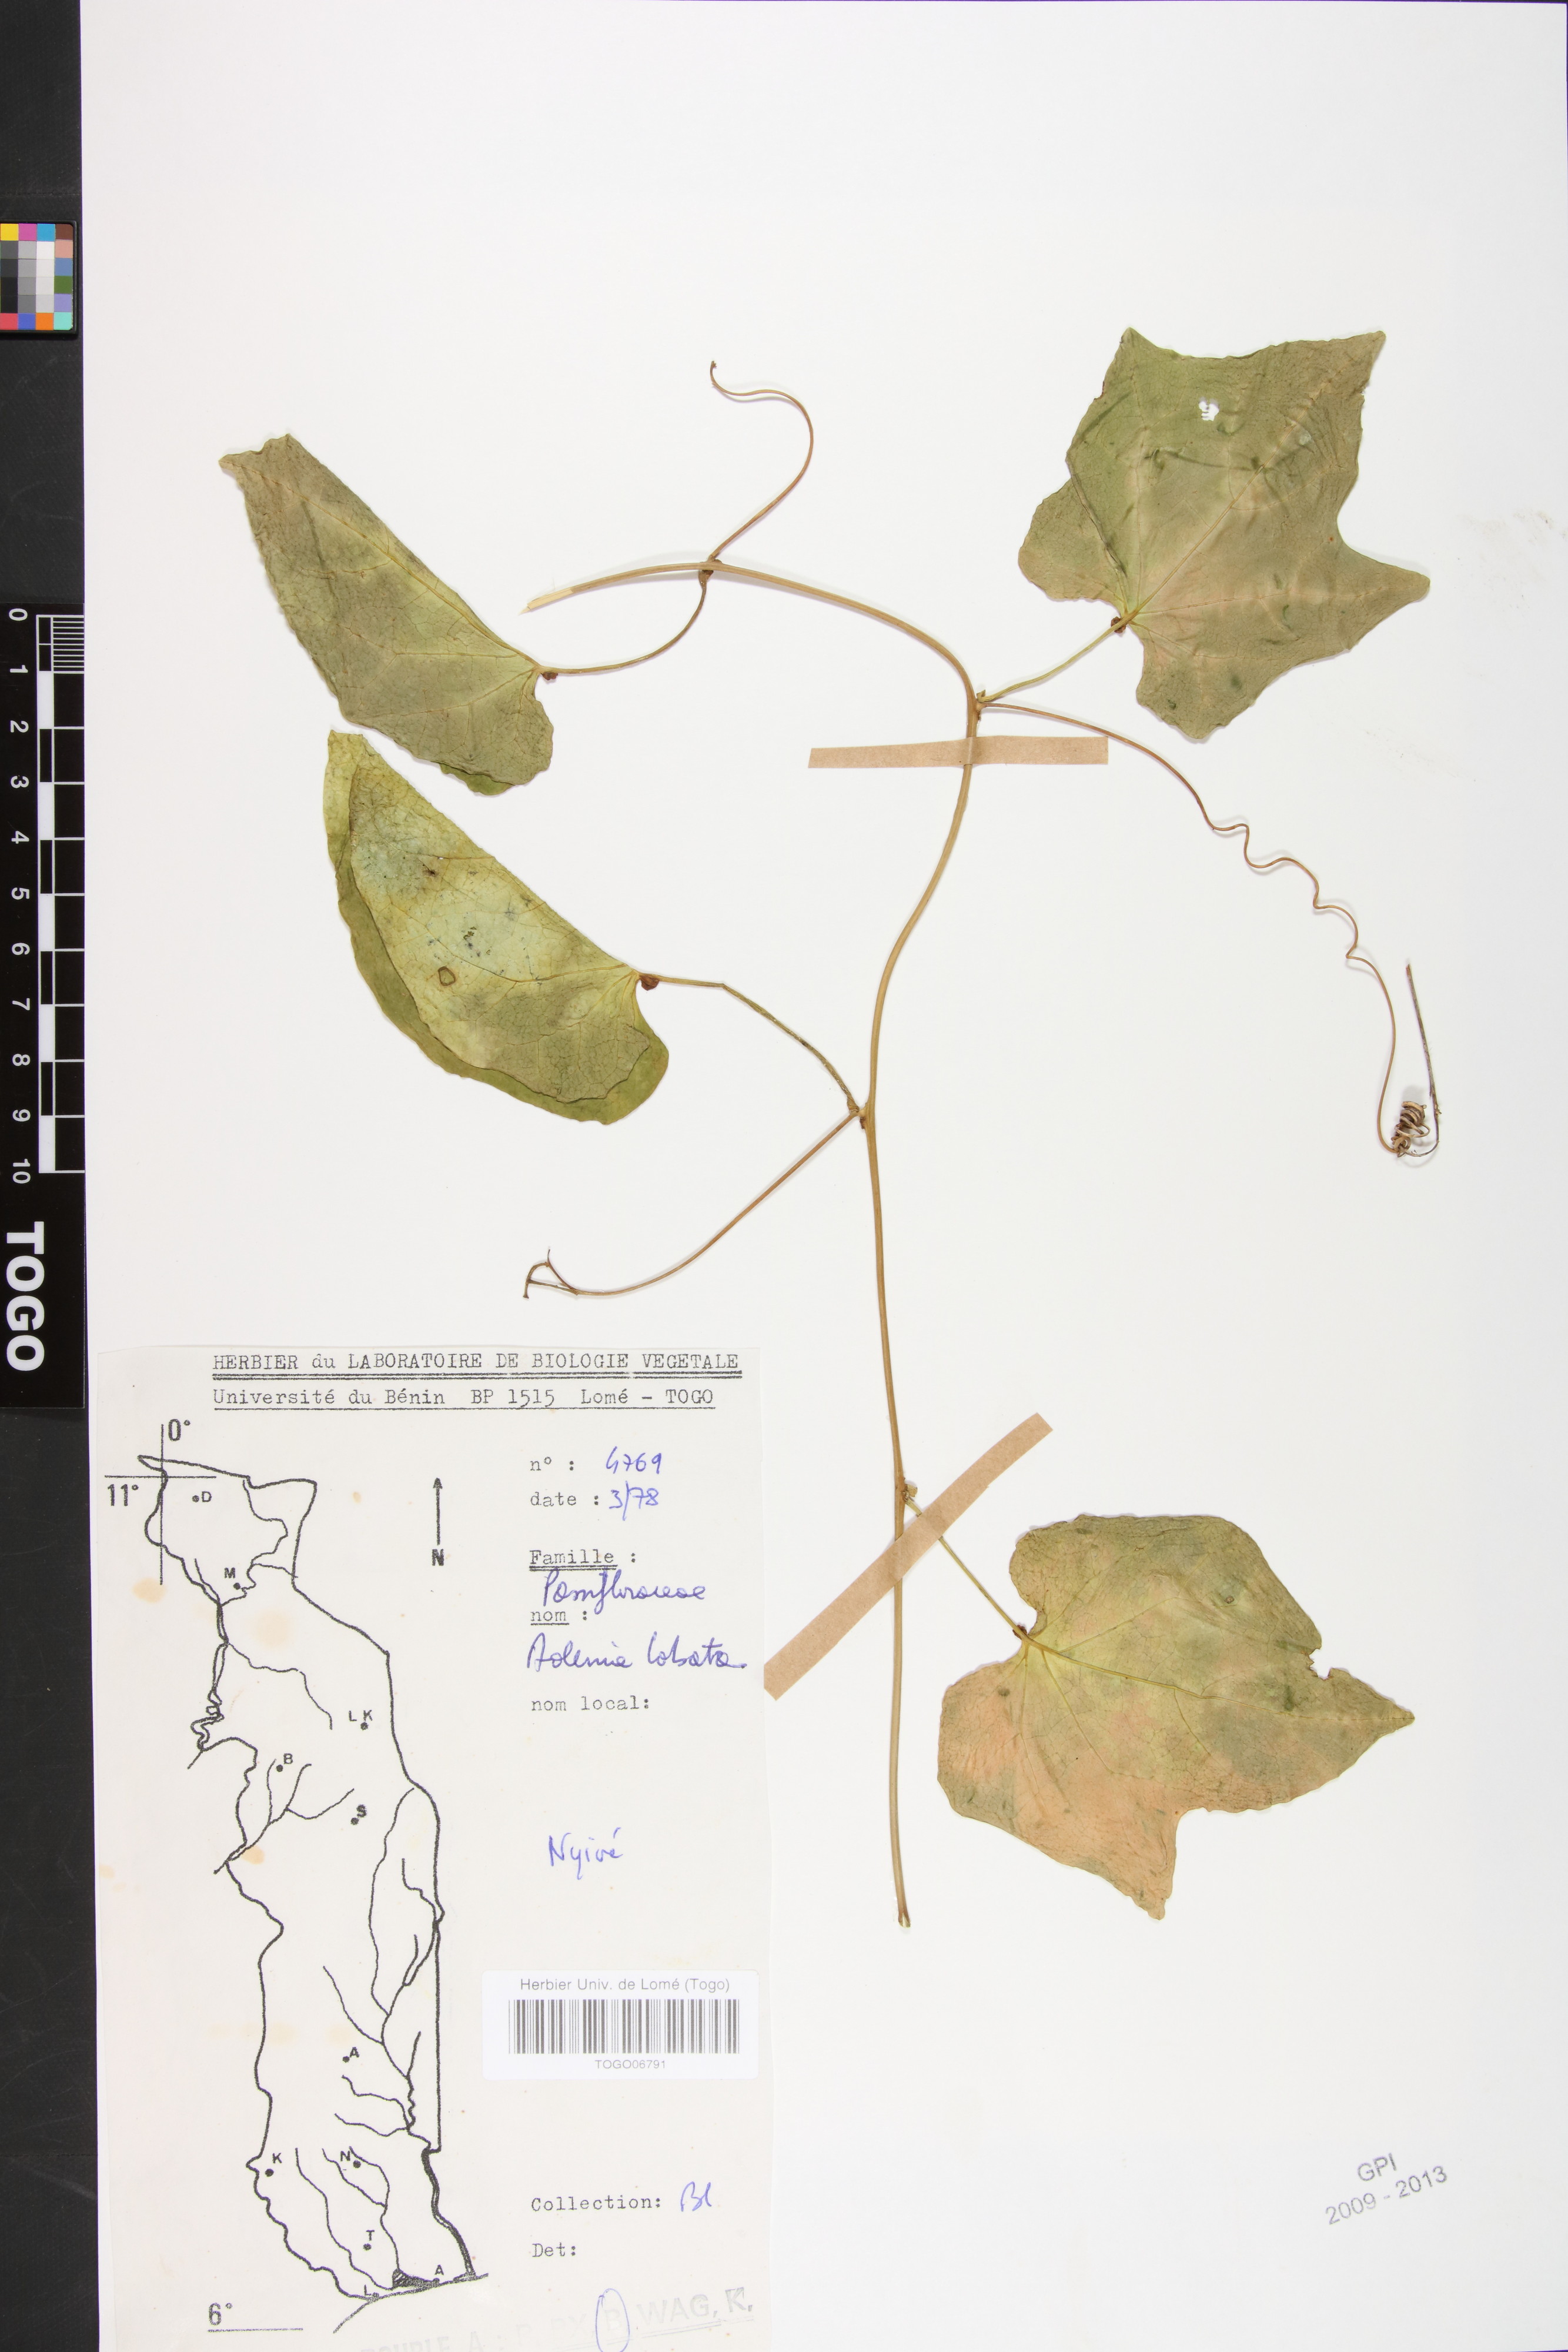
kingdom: Plantae
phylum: Tracheophyta
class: Magnoliopsida
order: Malpighiales
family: Passifloraceae
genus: Adenia
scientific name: Adenia lobata
